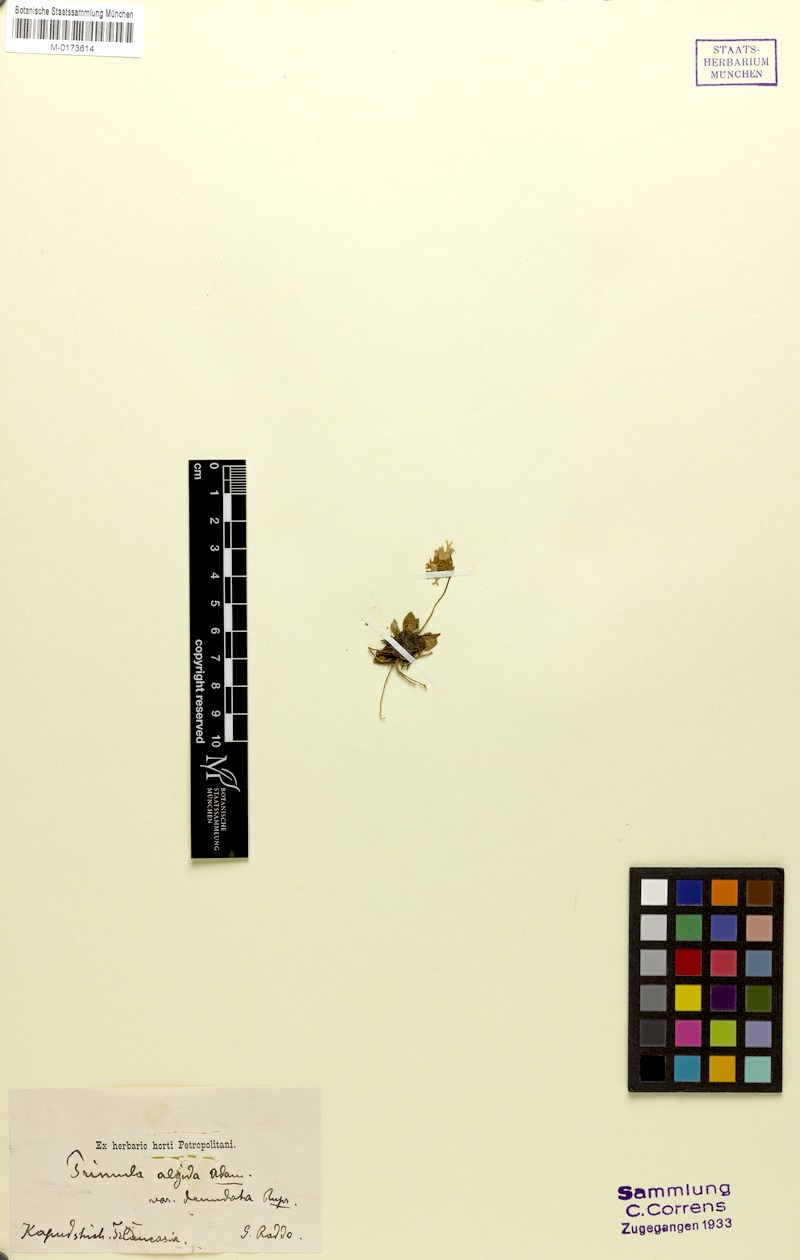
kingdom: Plantae
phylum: Tracheophyta
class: Magnoliopsida
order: Ericales
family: Primulaceae
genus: Primula
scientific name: Primula algida
